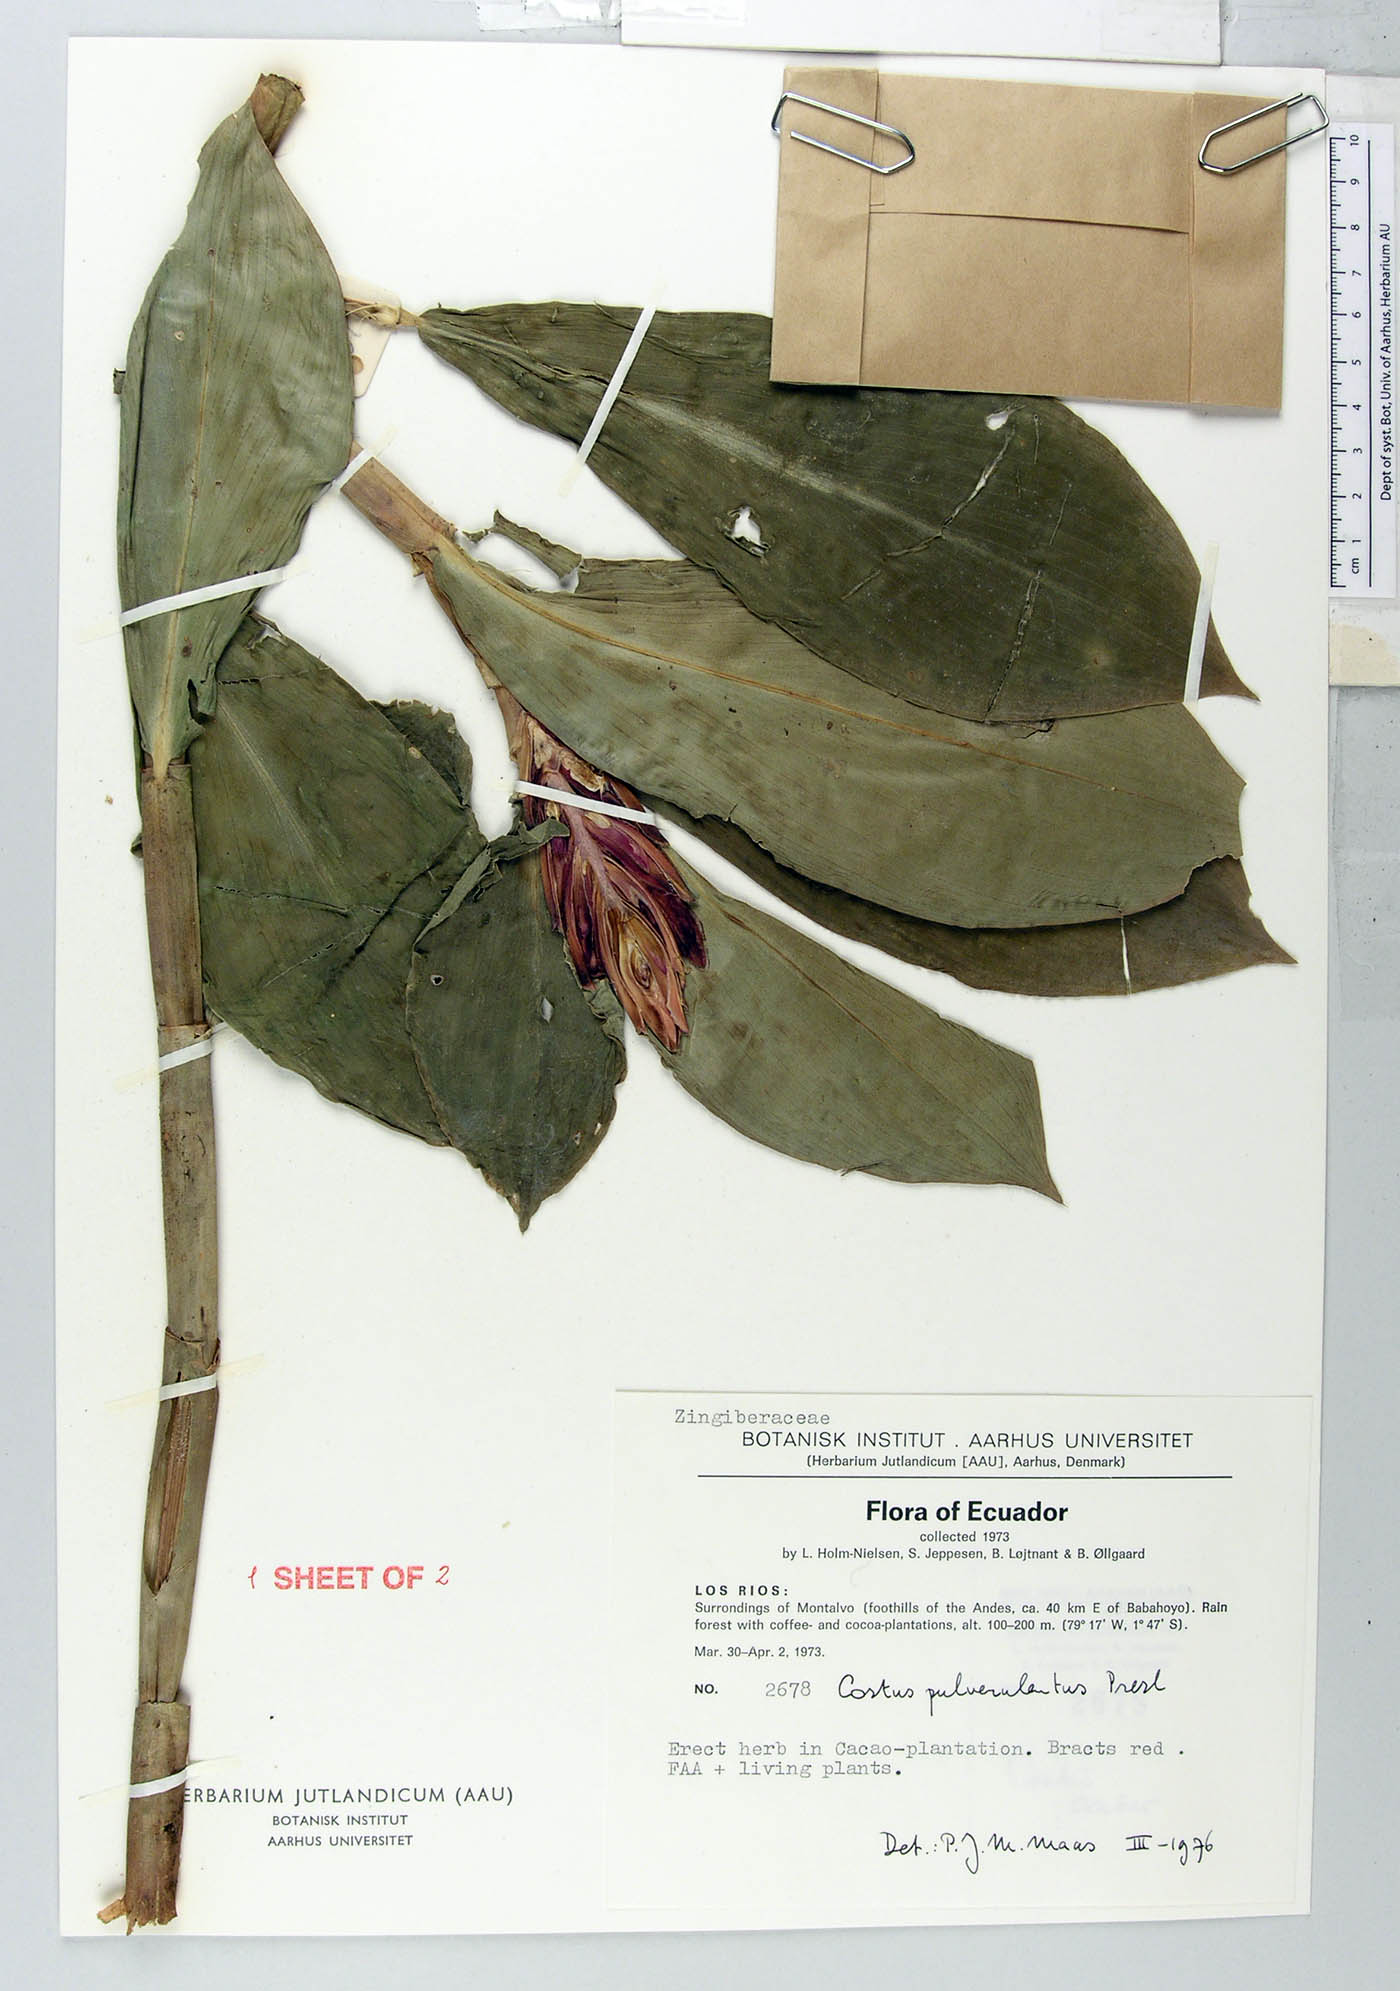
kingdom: Plantae
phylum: Tracheophyta
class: Liliopsida
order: Zingiberales
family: Costaceae
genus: Costus
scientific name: Costus pulverulentus
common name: Spiral ginger
